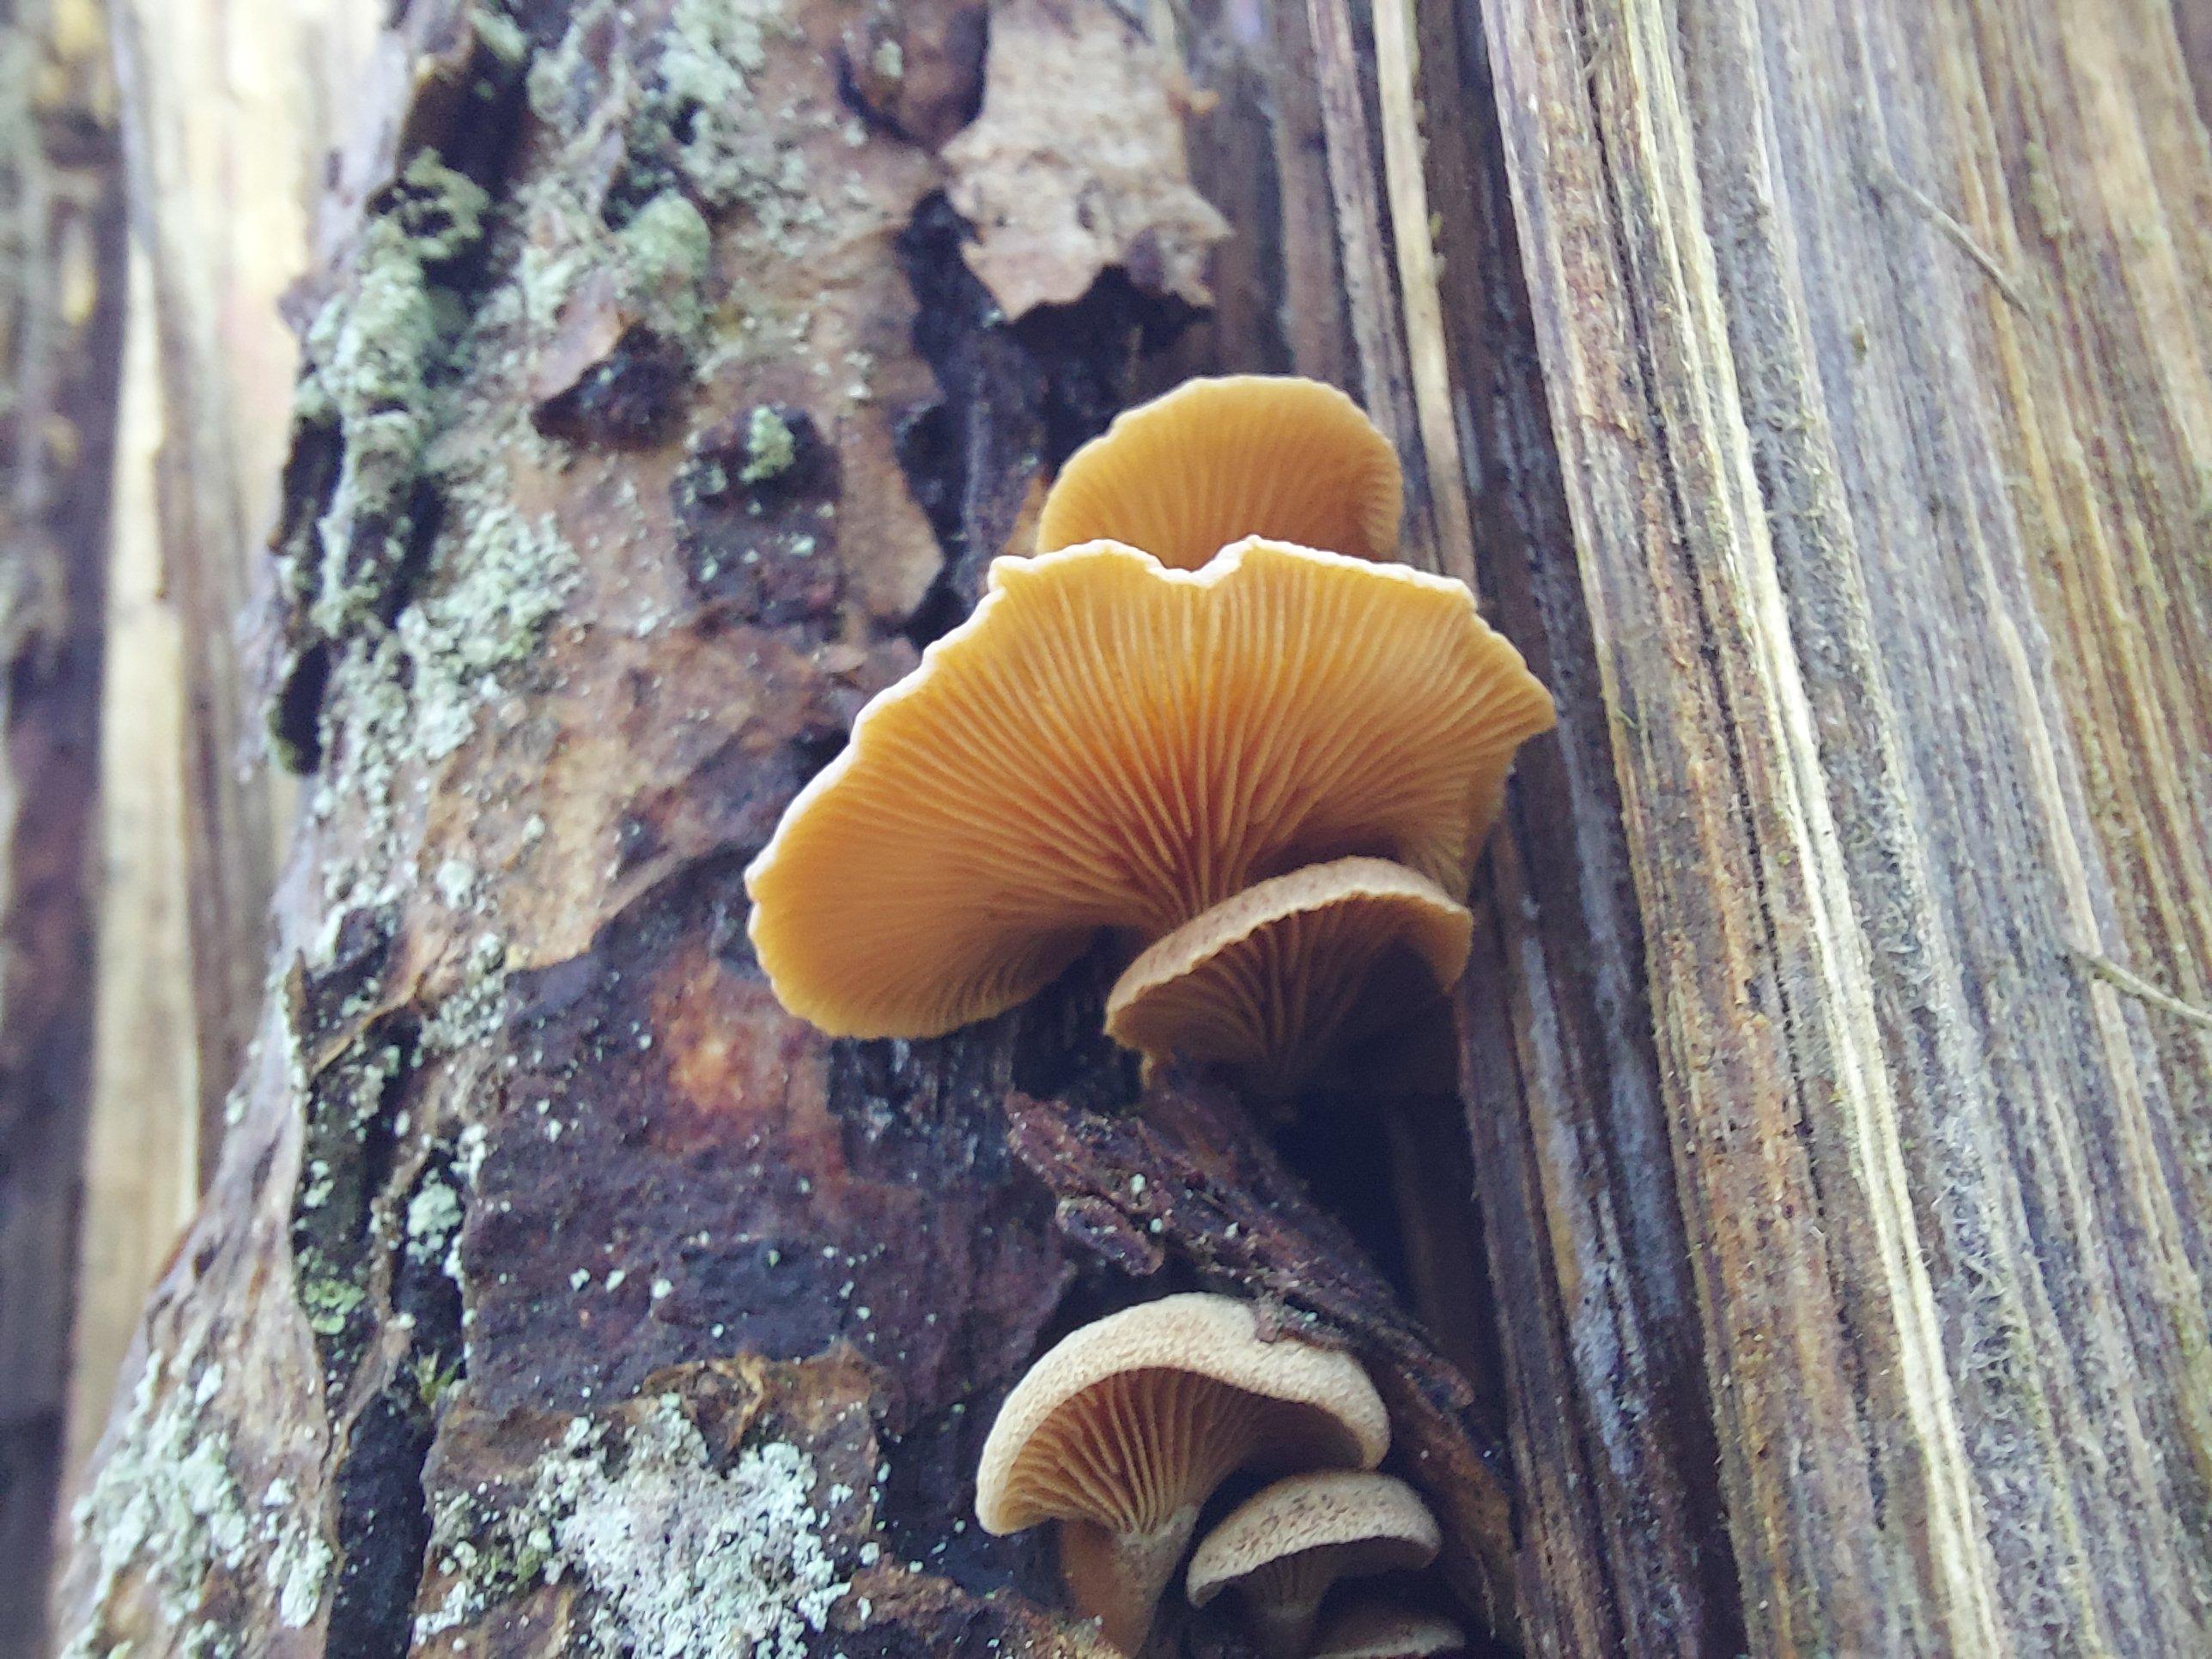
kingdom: Fungi
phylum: Basidiomycota
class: Agaricomycetes
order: Agaricales
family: Mycenaceae
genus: Panellus
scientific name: Panellus stipticus
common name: kliddet epaulethat
